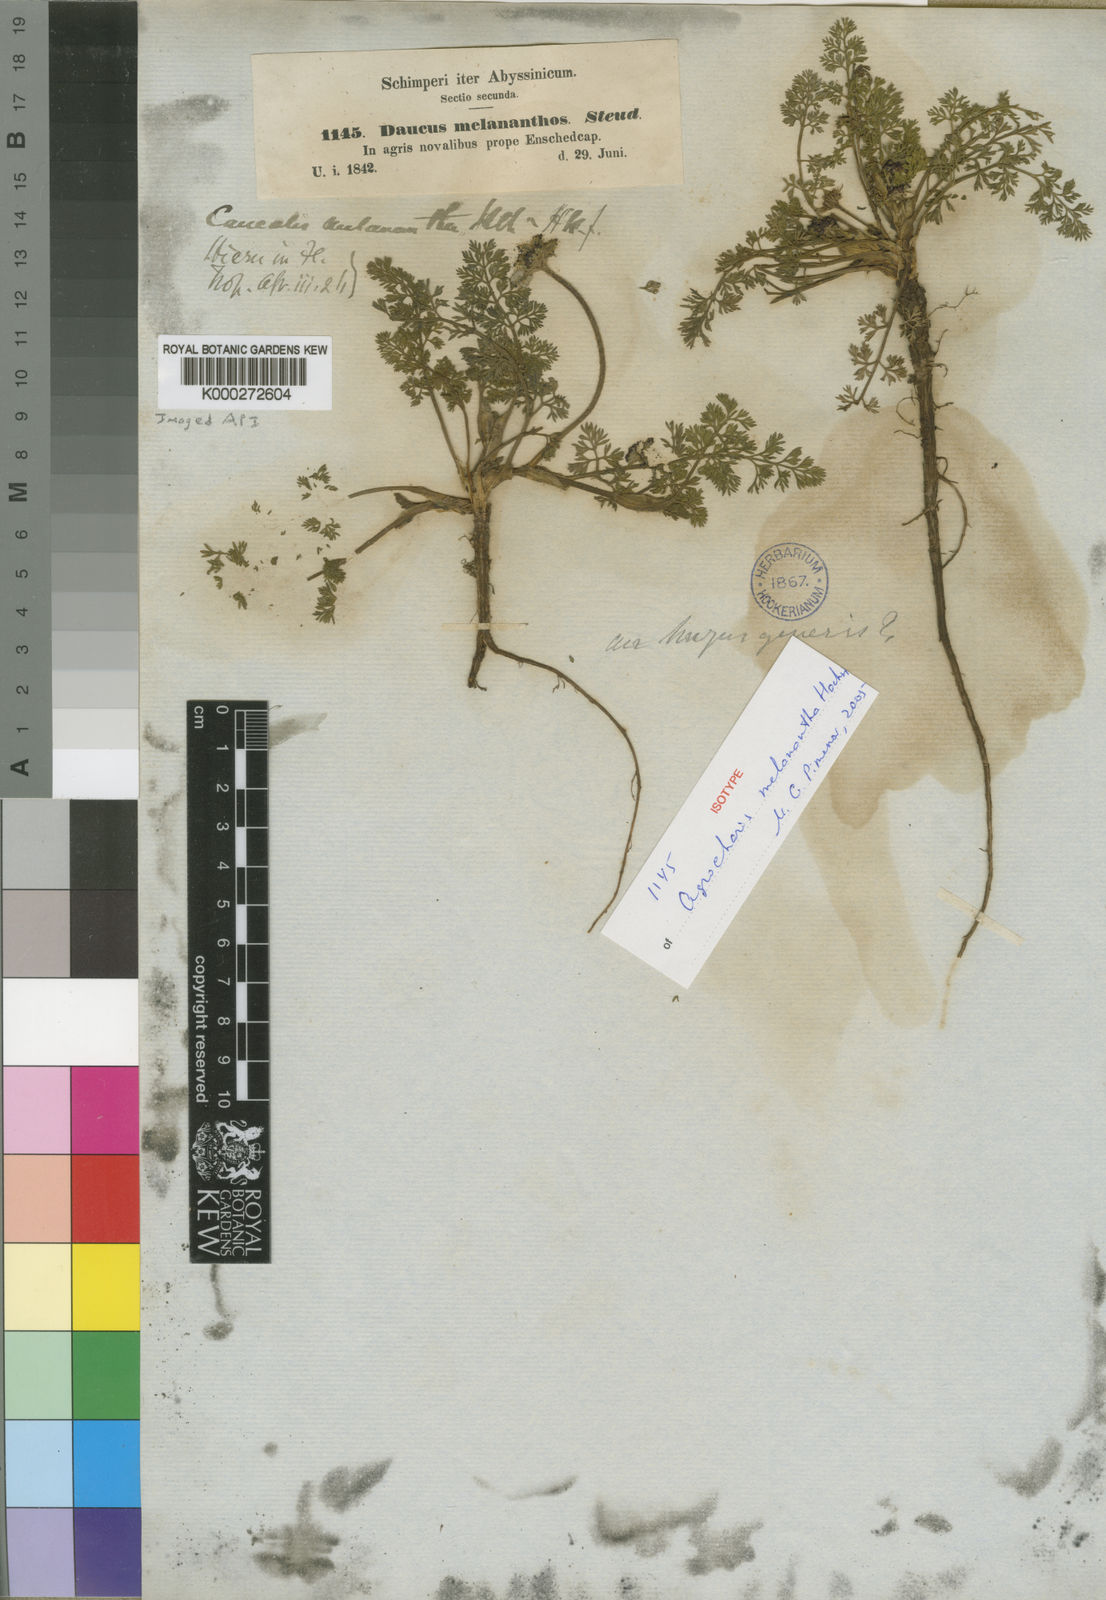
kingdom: Plantae
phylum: Tracheophyta
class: Magnoliopsida
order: Apiales
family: Apiaceae
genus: Daucus
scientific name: Daucus melananthus
